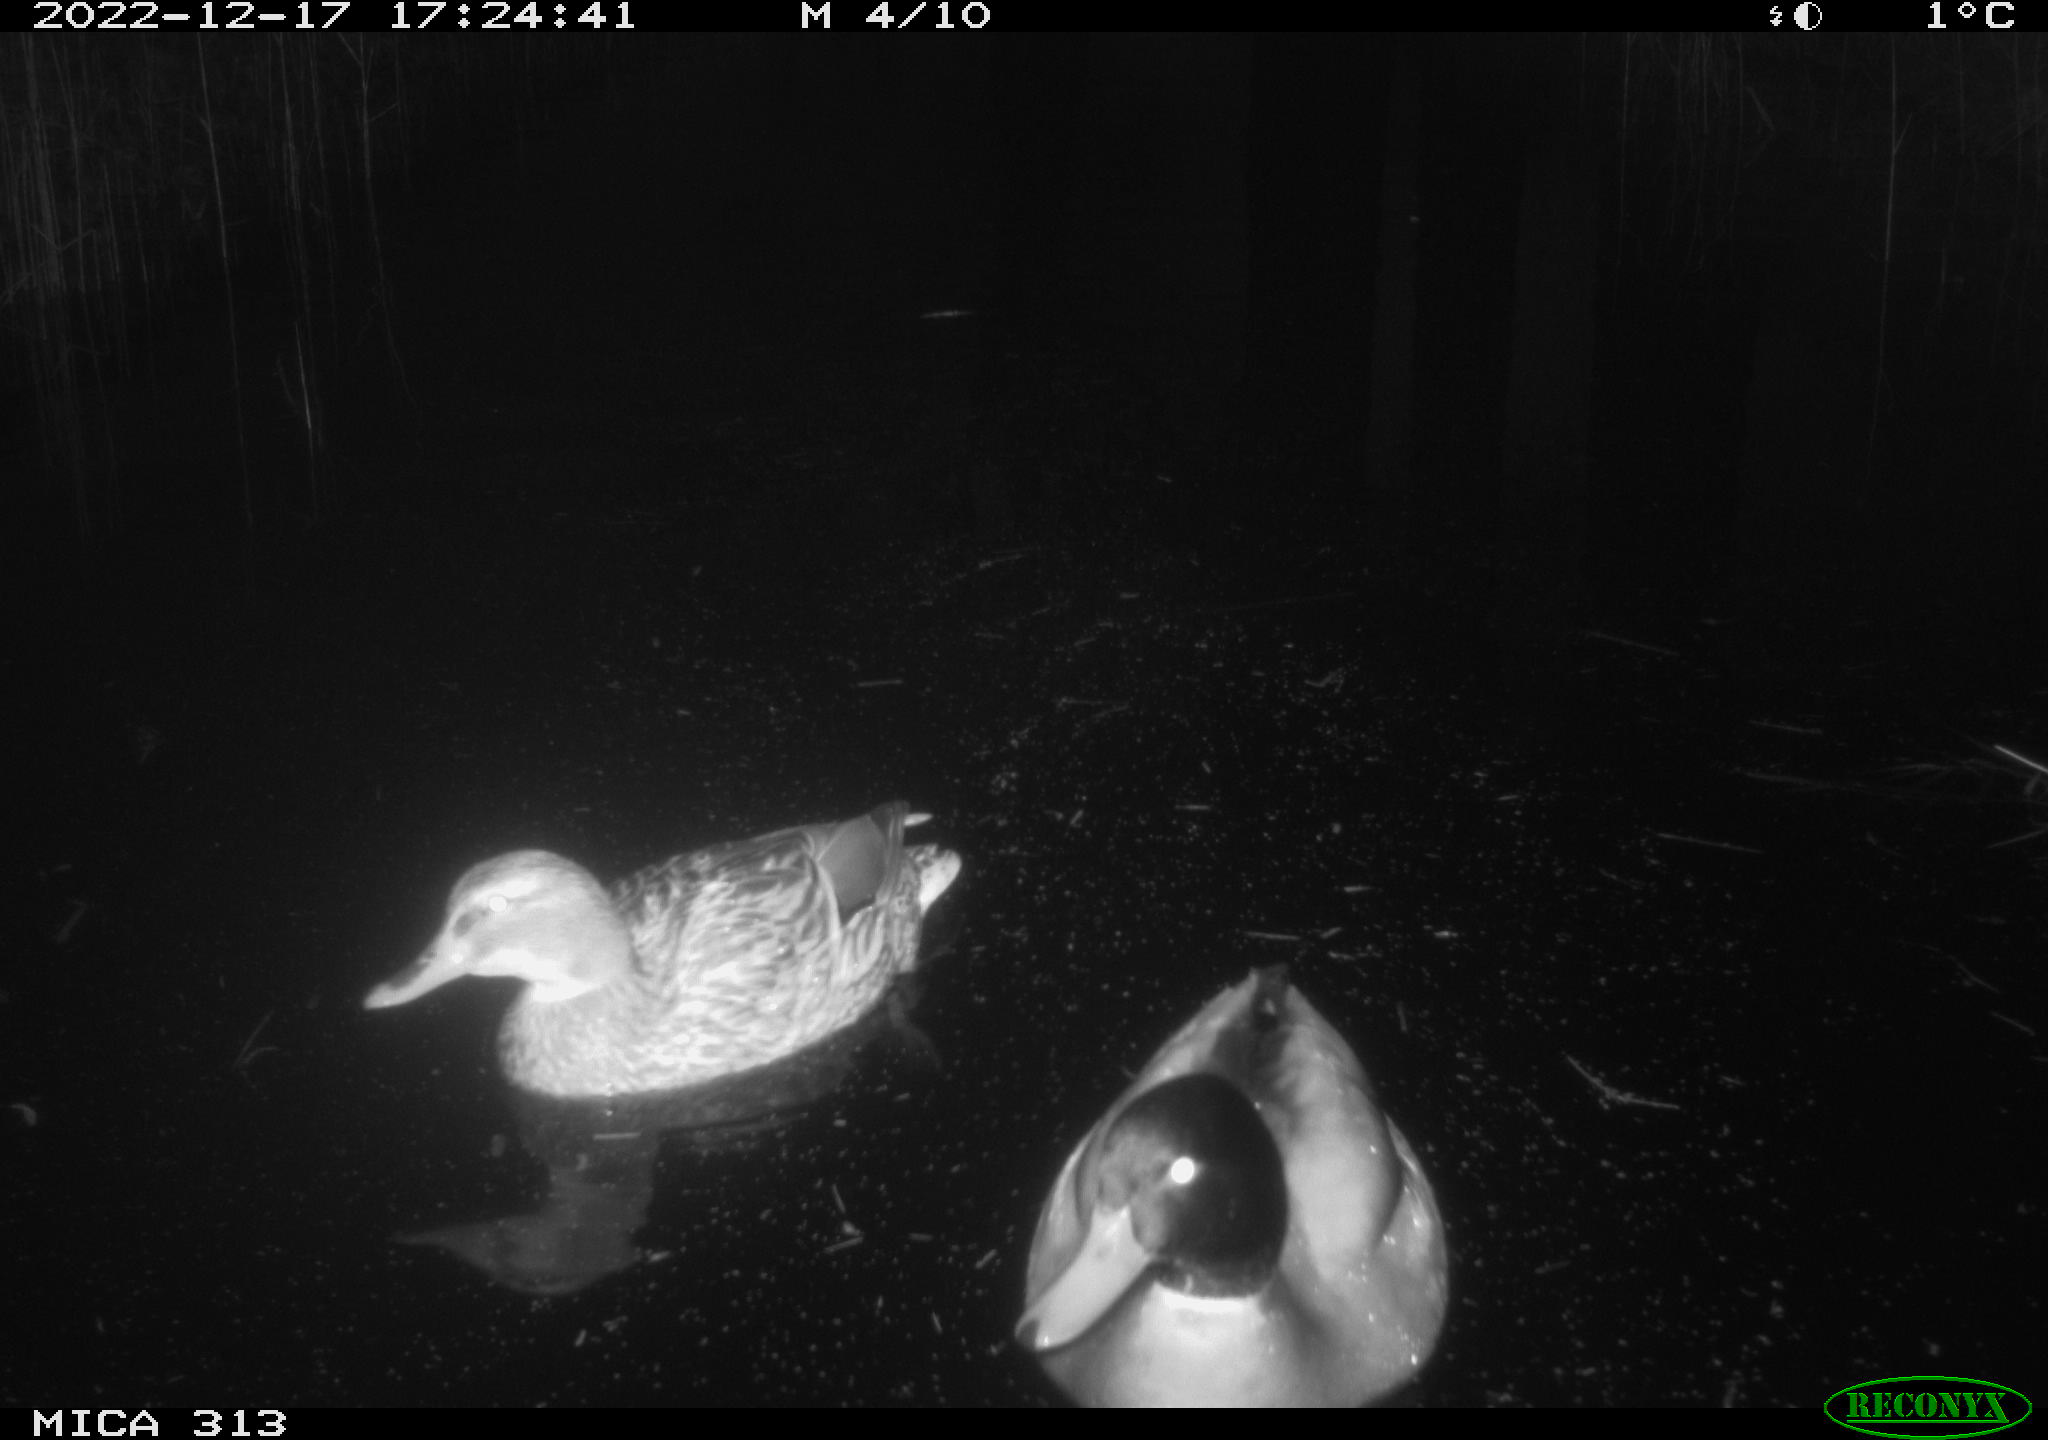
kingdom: Animalia
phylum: Chordata
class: Aves
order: Anseriformes
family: Anatidae
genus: Anas
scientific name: Anas
